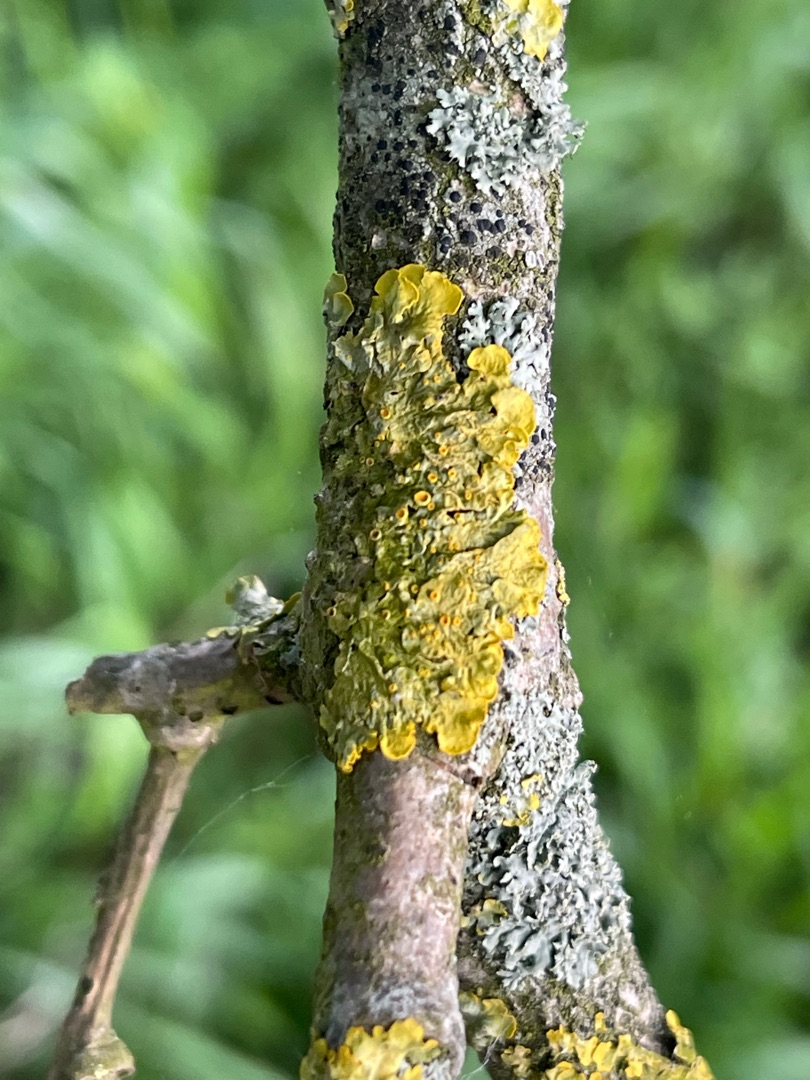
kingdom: Fungi
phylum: Ascomycota
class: Lecanoromycetes
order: Teloschistales
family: Teloschistaceae
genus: Xanthoria
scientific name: Xanthoria parietina
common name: Almindelig væggelav
